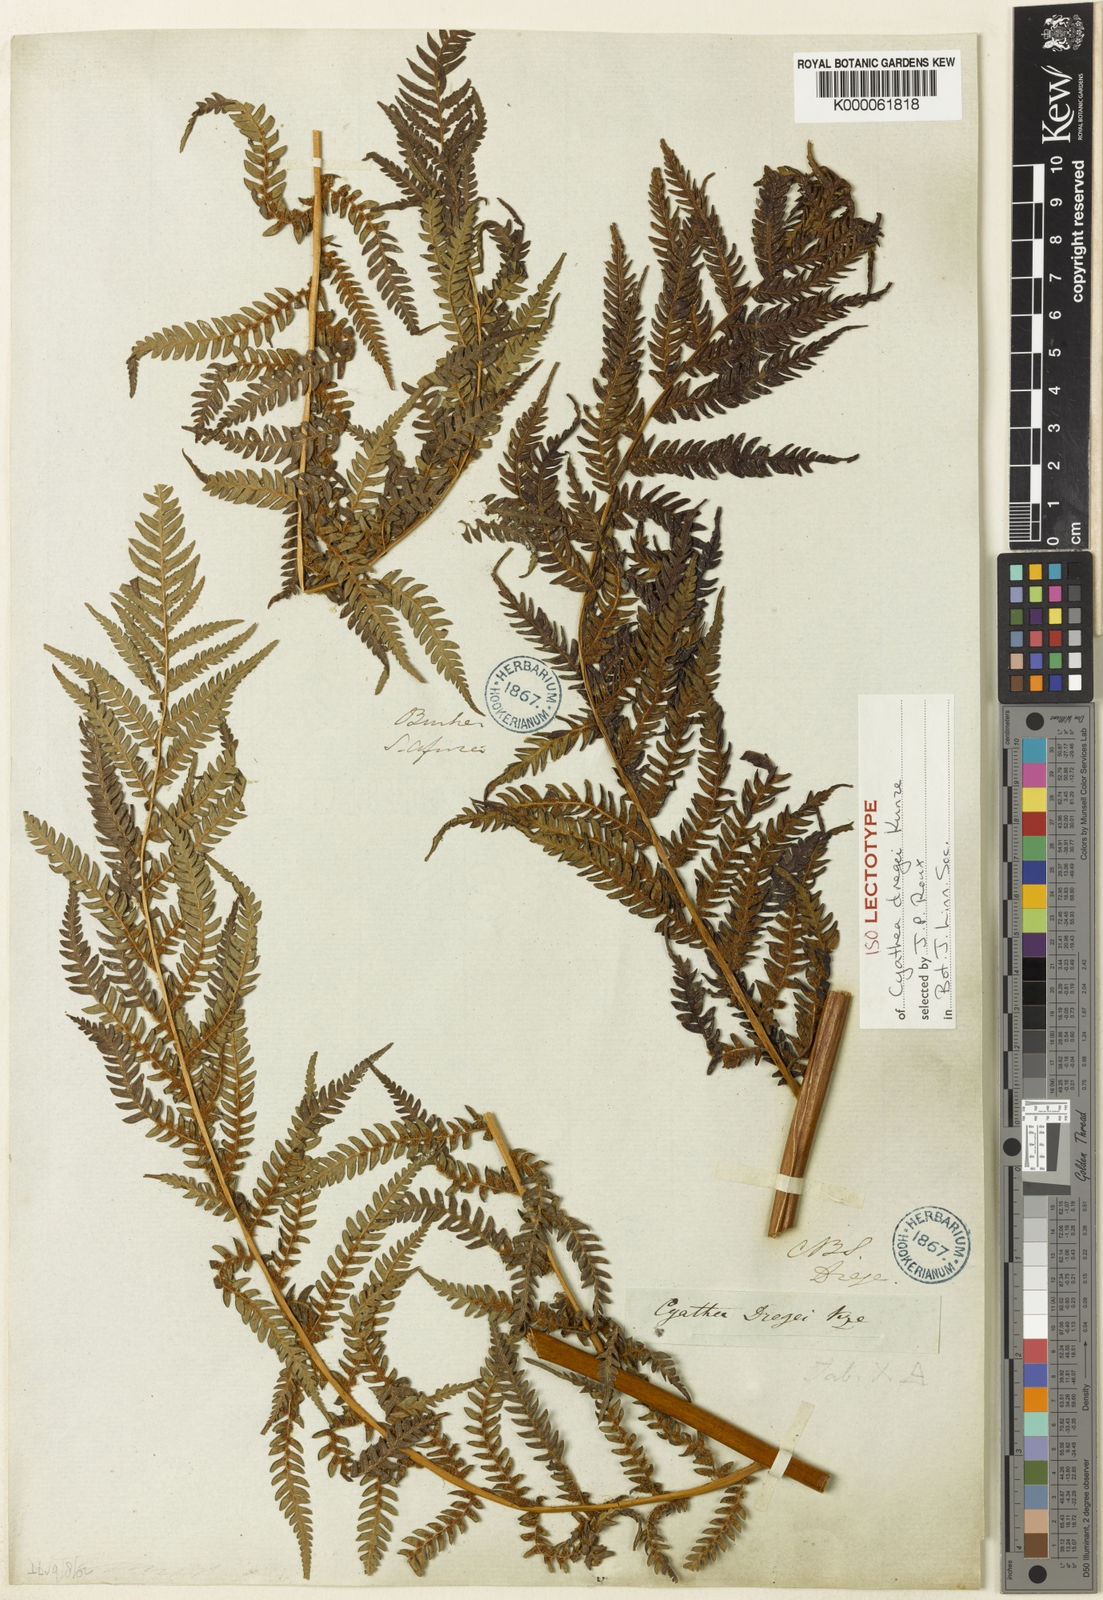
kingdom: Plantae
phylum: Tracheophyta
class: Polypodiopsida
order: Cyatheales
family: Cyatheaceae
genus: Alsophila
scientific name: Alsophila dregei
